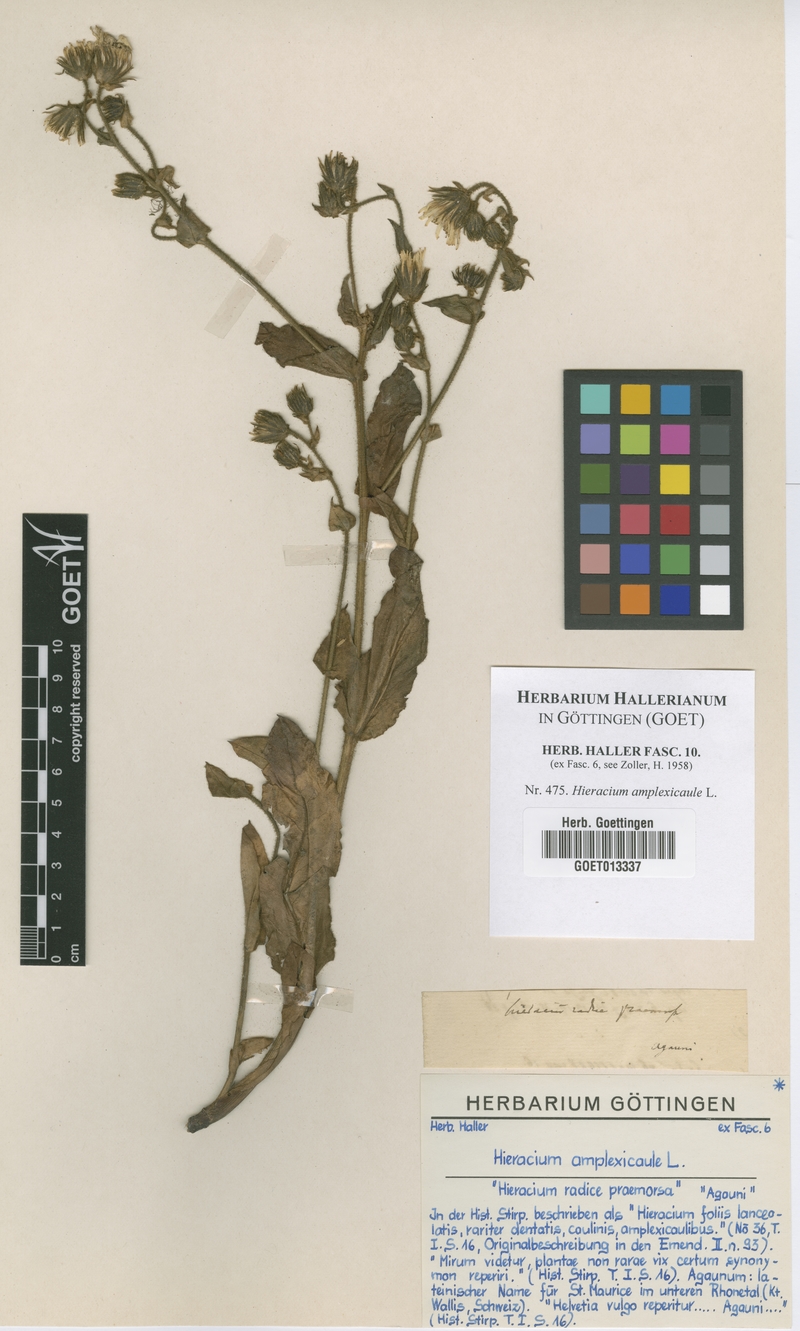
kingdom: Plantae
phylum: Tracheophyta
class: Magnoliopsida
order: Asterales
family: Asteraceae
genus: Hieracium
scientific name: Hieracium amplexicaule
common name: Sticky hawkweed
